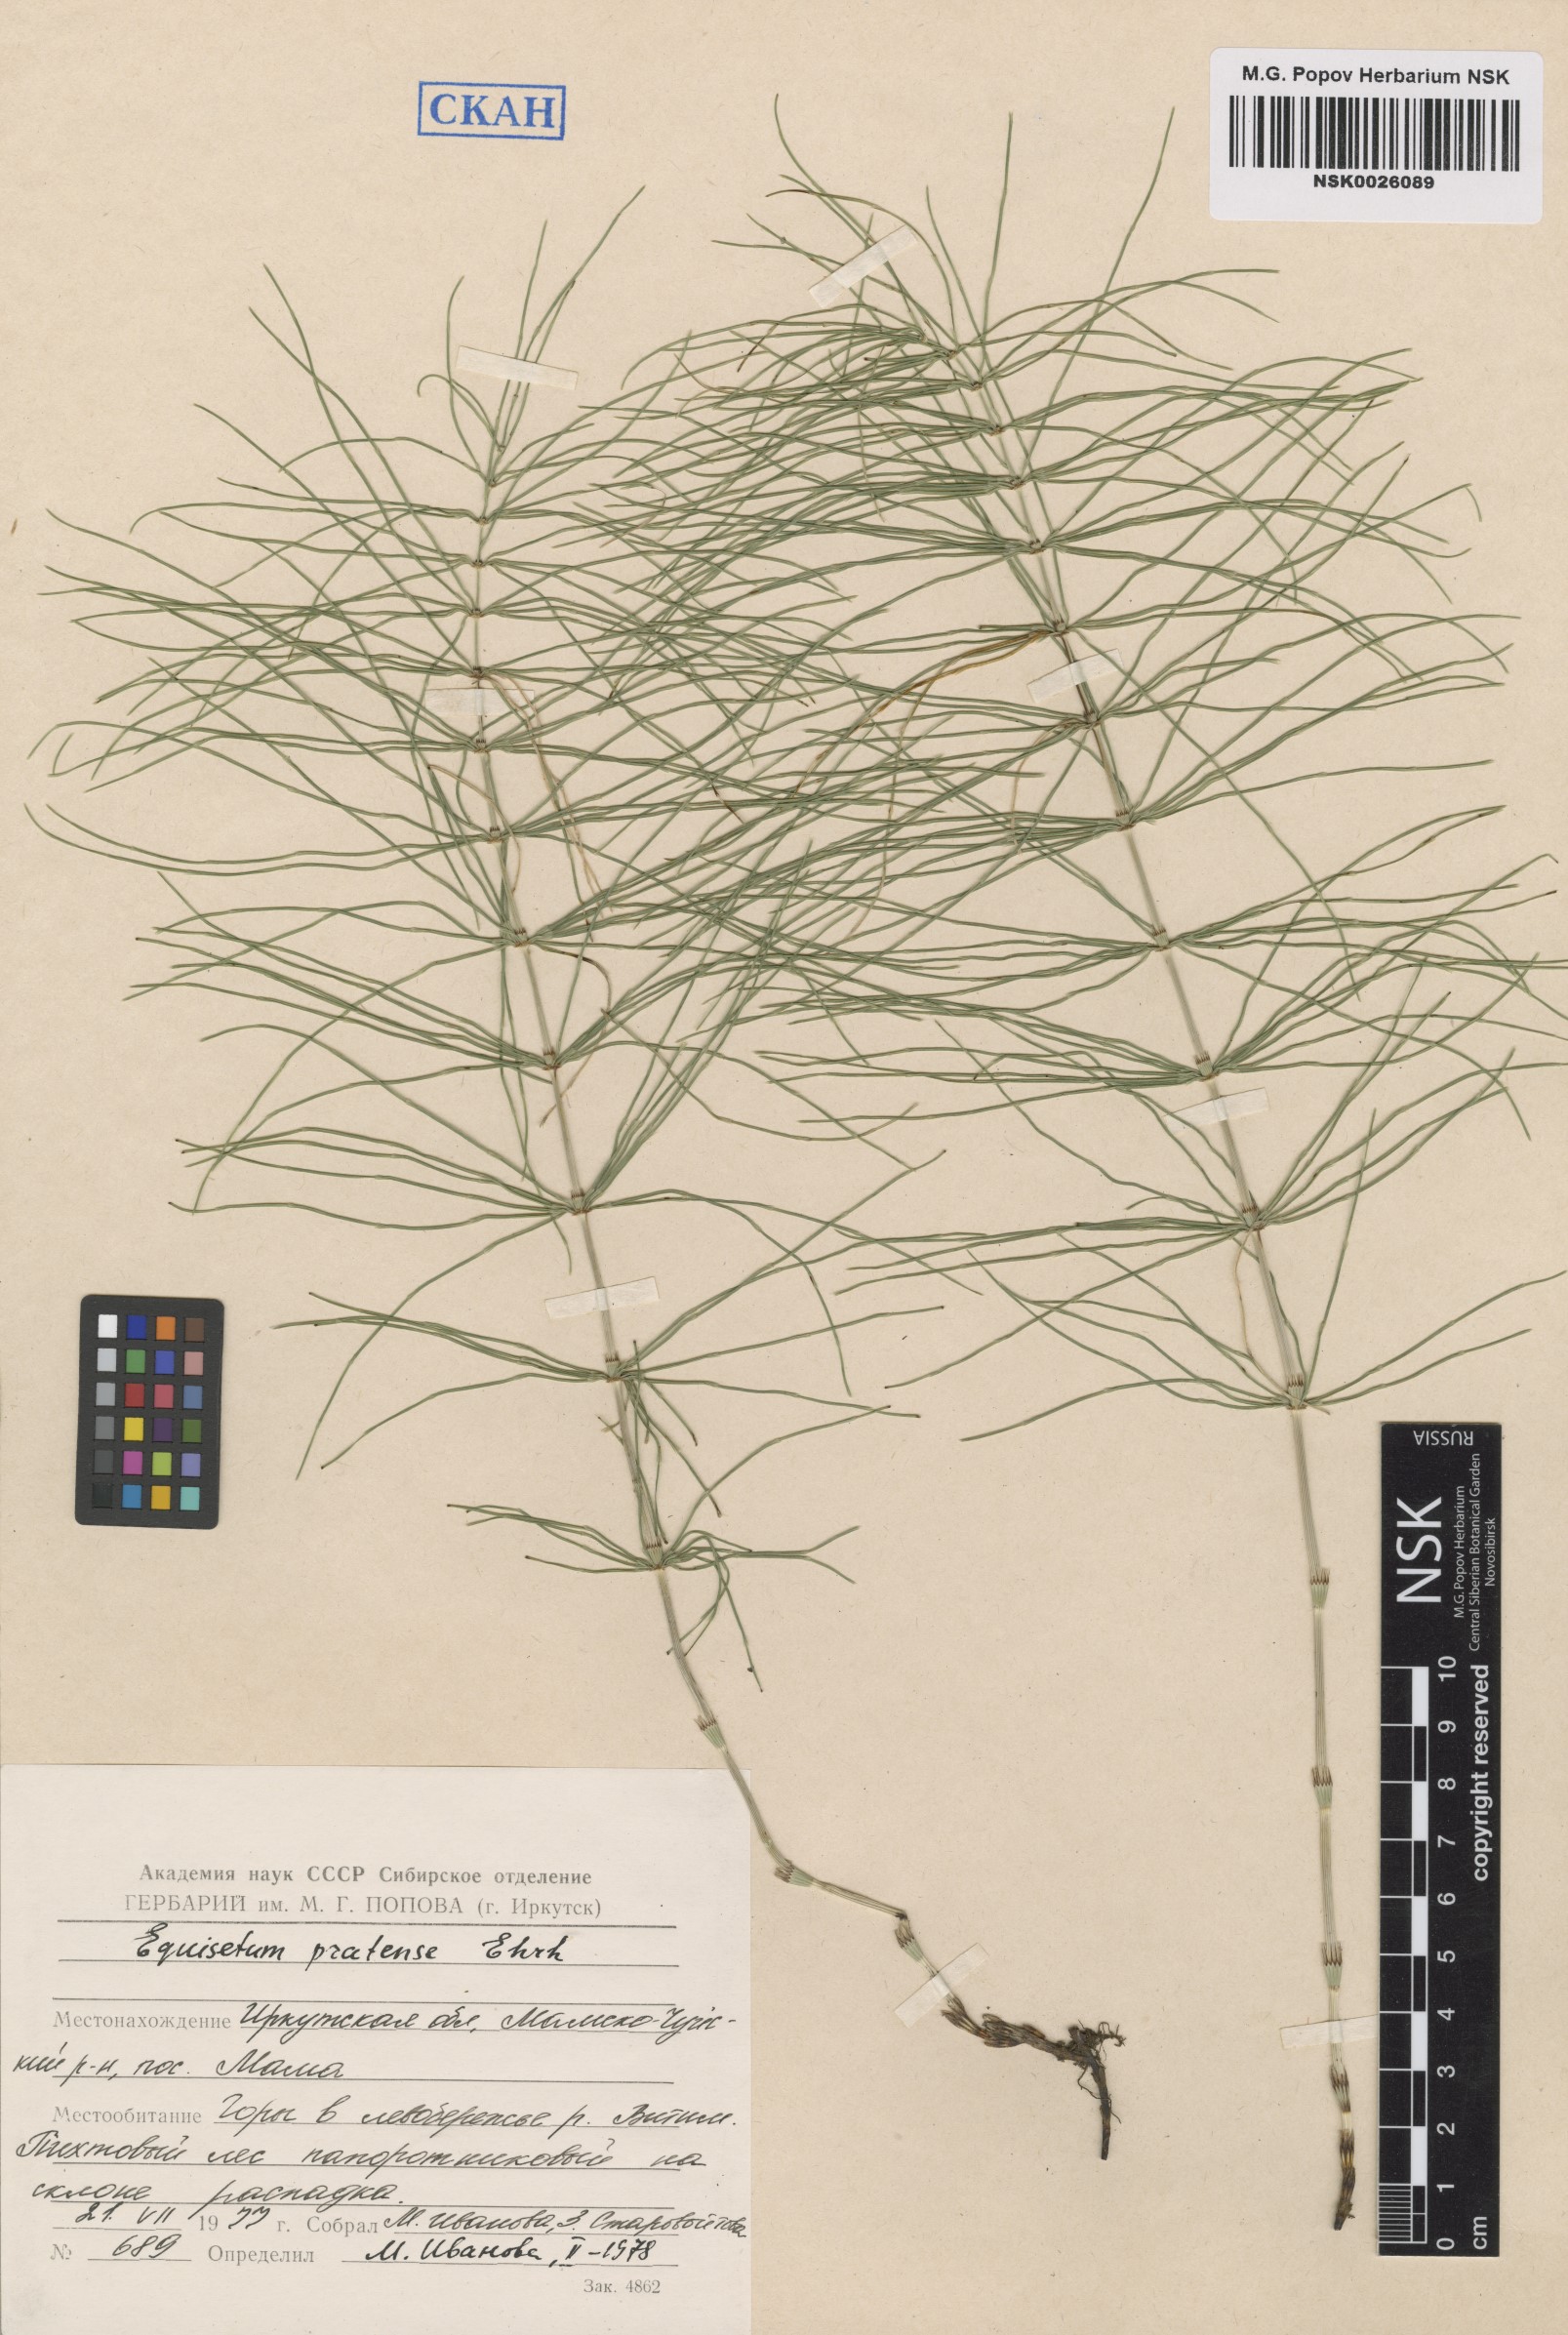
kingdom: Plantae
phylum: Tracheophyta
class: Polypodiopsida
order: Equisetales
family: Equisetaceae
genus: Equisetum
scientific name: Equisetum pratense
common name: Meadow horsetail
